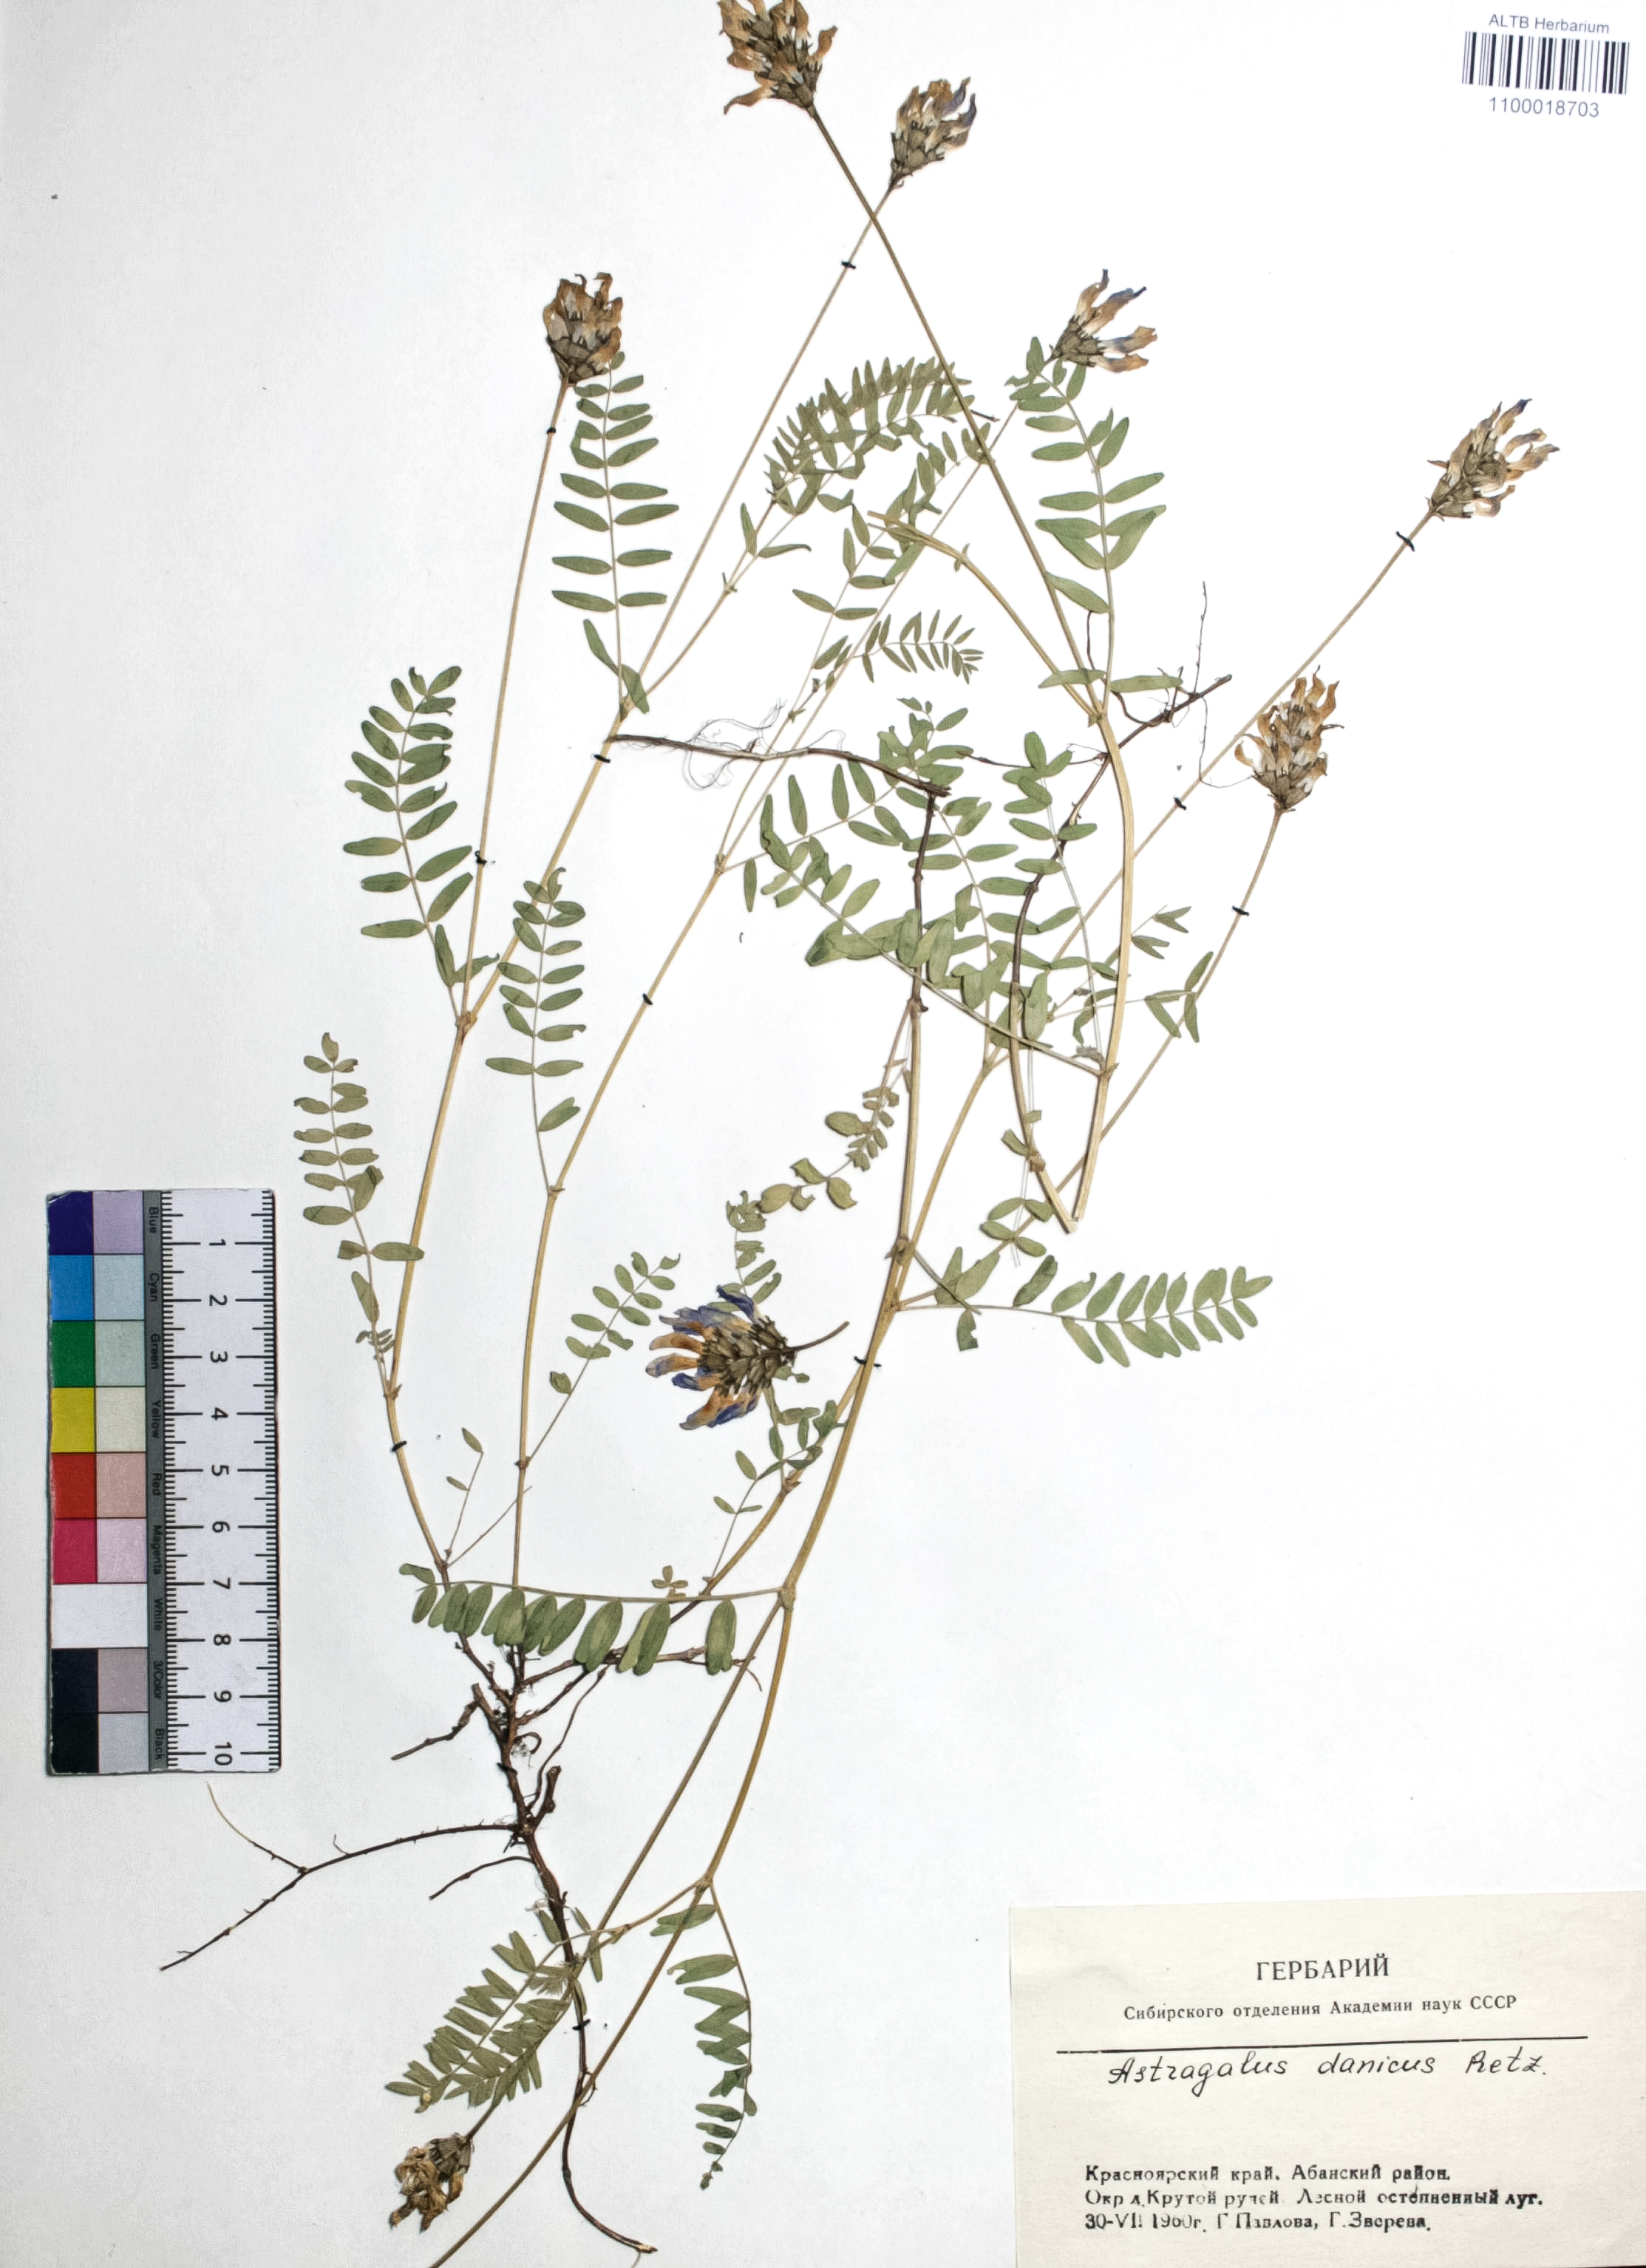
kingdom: Plantae
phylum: Tracheophyta
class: Magnoliopsida
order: Fabales
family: Fabaceae
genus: Astragalus
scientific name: Astragalus danicus
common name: Purple milk-vetch
